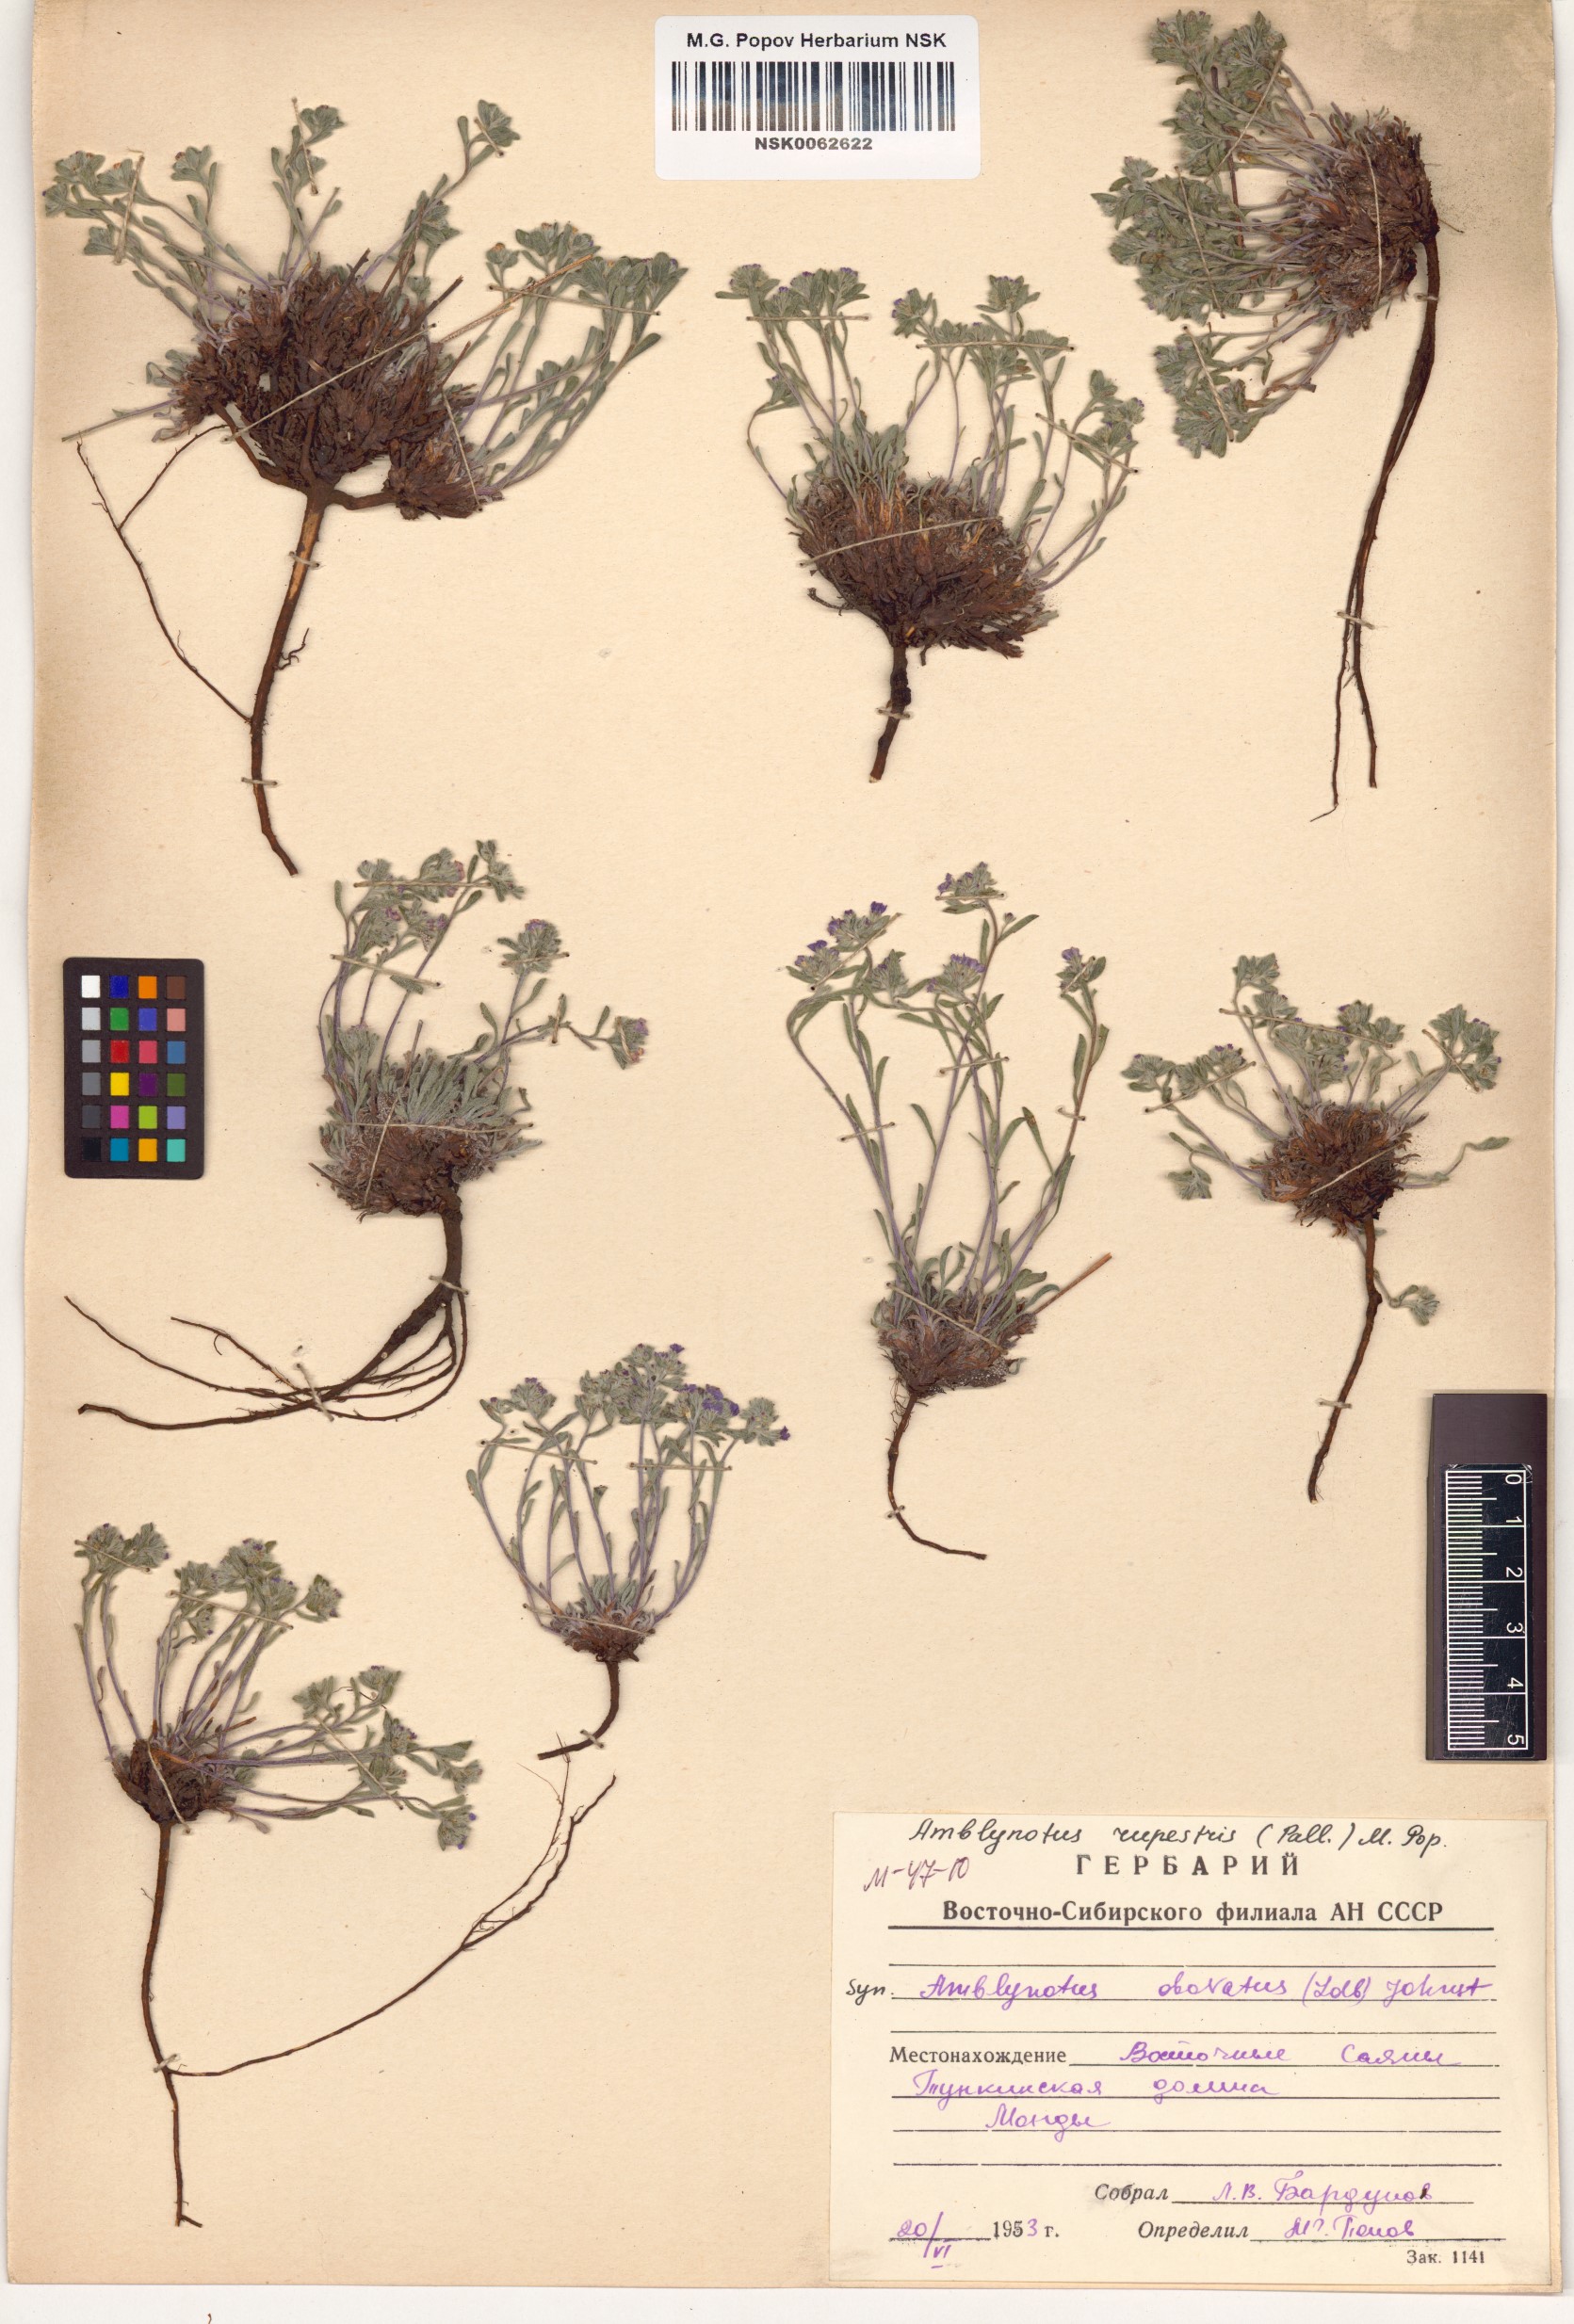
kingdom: Plantae
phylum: Tracheophyta
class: Magnoliopsida
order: Boraginales
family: Boraginaceae
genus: Eritrichium
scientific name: Eritrichium rupestre
